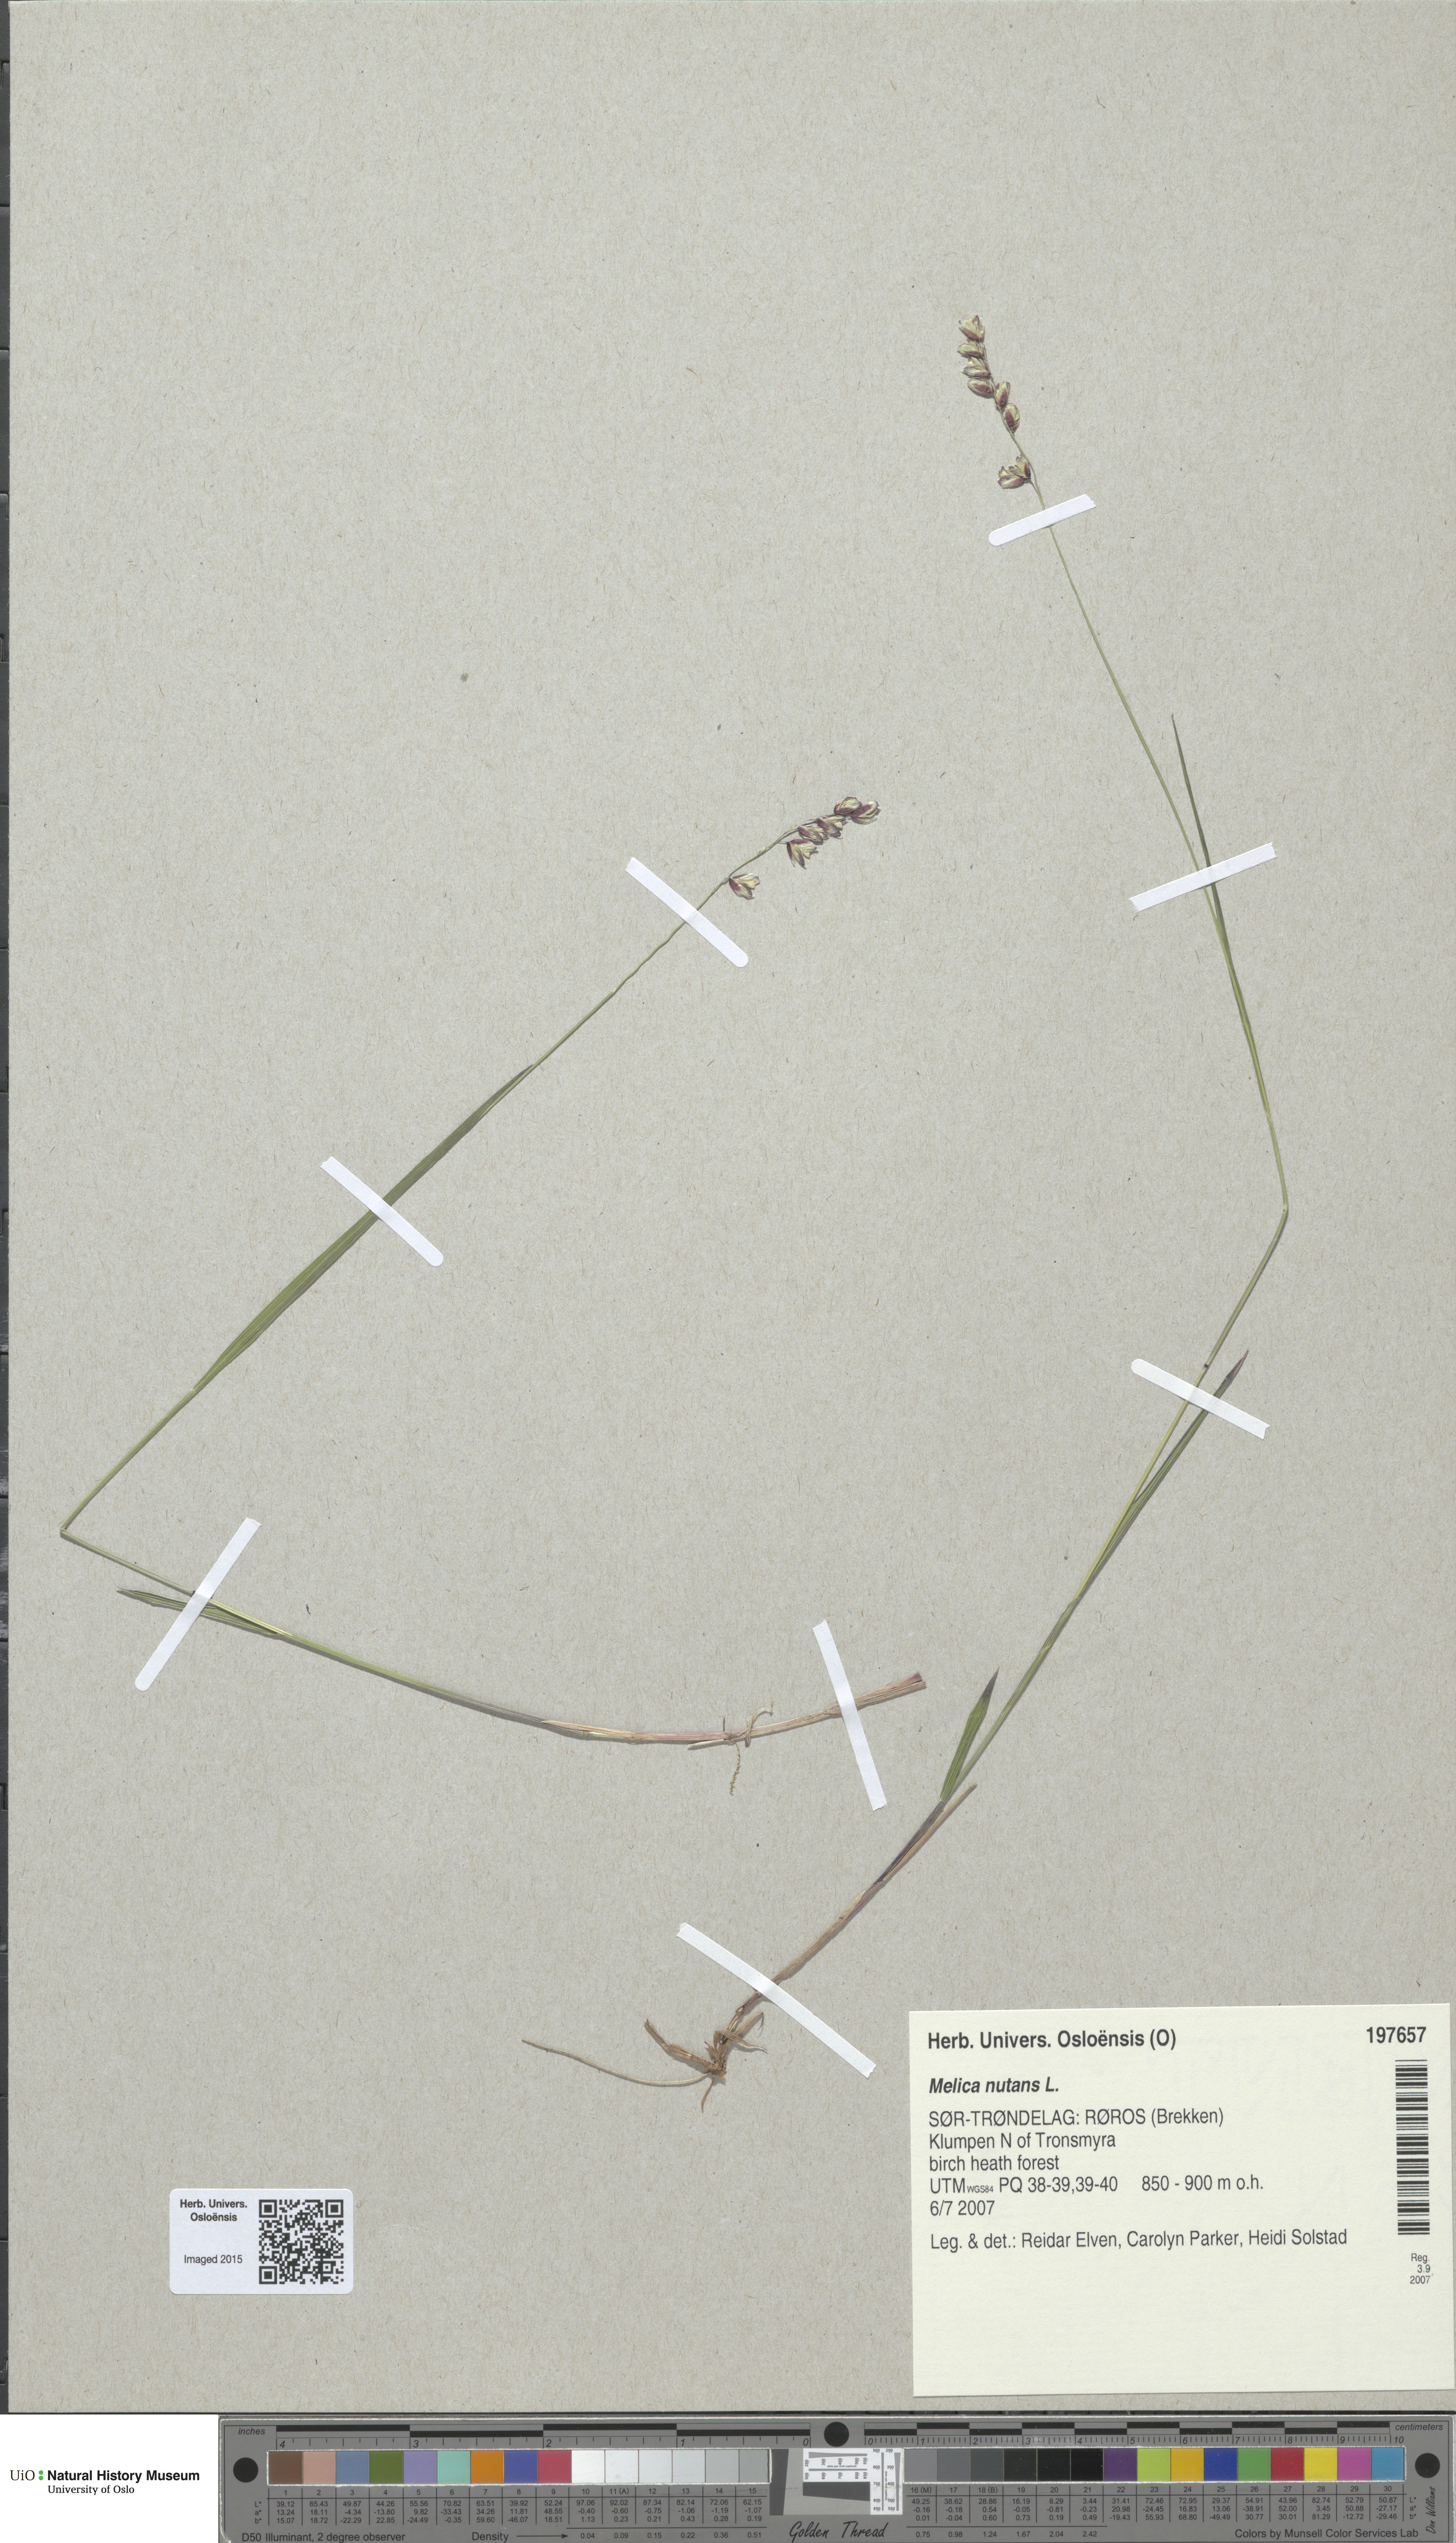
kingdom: Plantae
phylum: Tracheophyta
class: Liliopsida
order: Poales
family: Poaceae
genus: Melica
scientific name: Melica nutans
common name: Mountain melick
